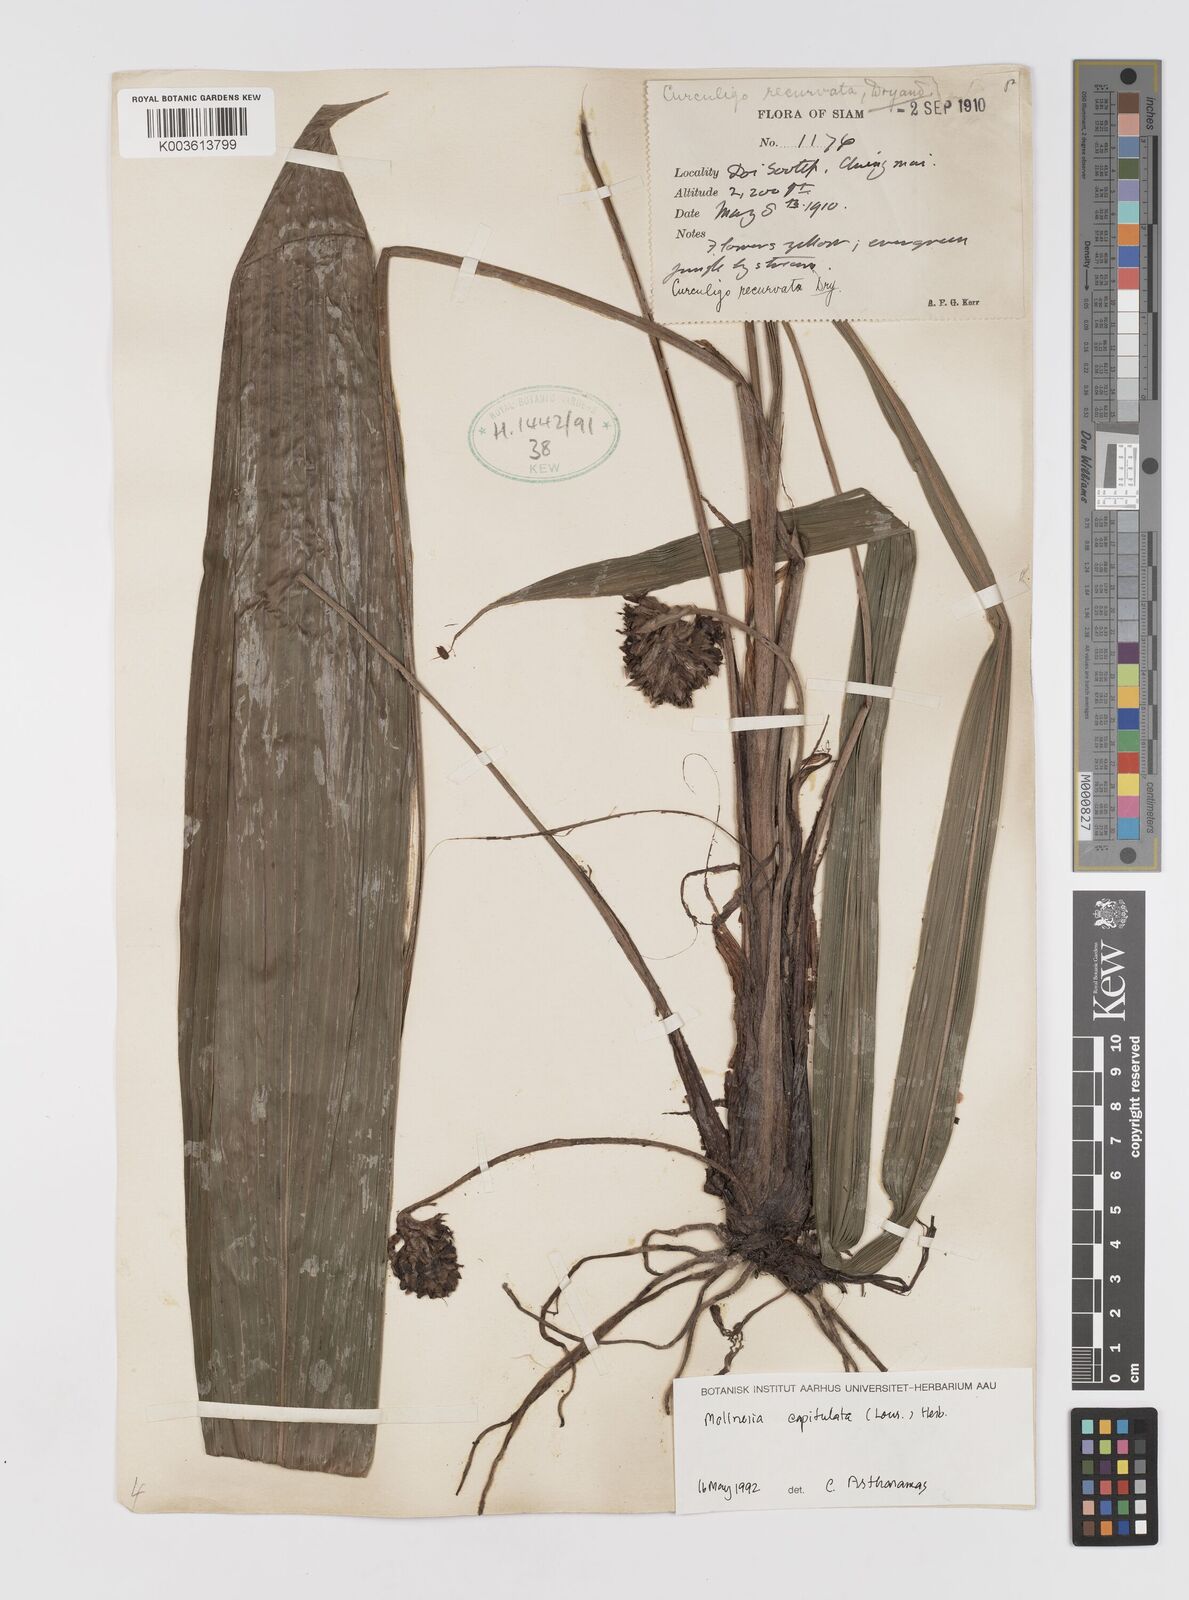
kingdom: Plantae
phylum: Tracheophyta
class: Liliopsida
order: Asparagales
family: Hypoxidaceae
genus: Curculigo
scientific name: Curculigo capitulata
